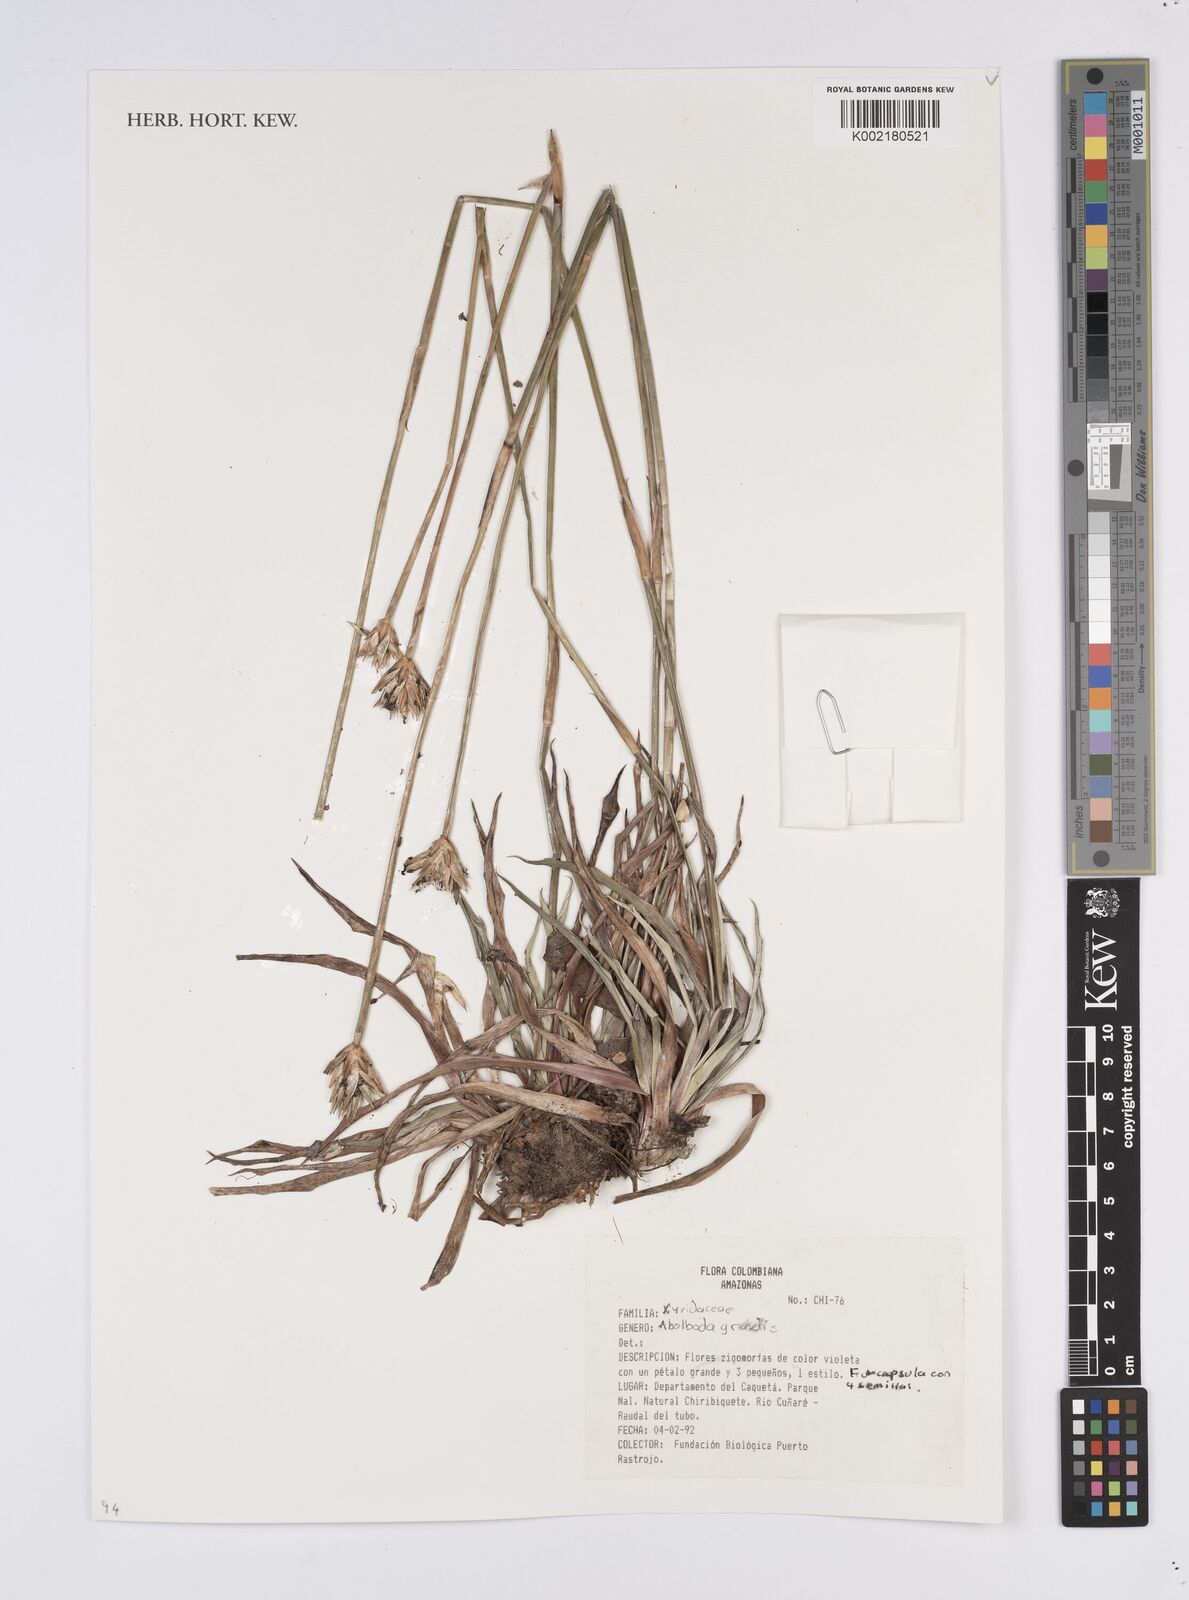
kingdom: Plantae
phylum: Tracheophyta
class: Liliopsida
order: Poales
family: Xyridaceae
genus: Abolboda
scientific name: Abolboda grandis
